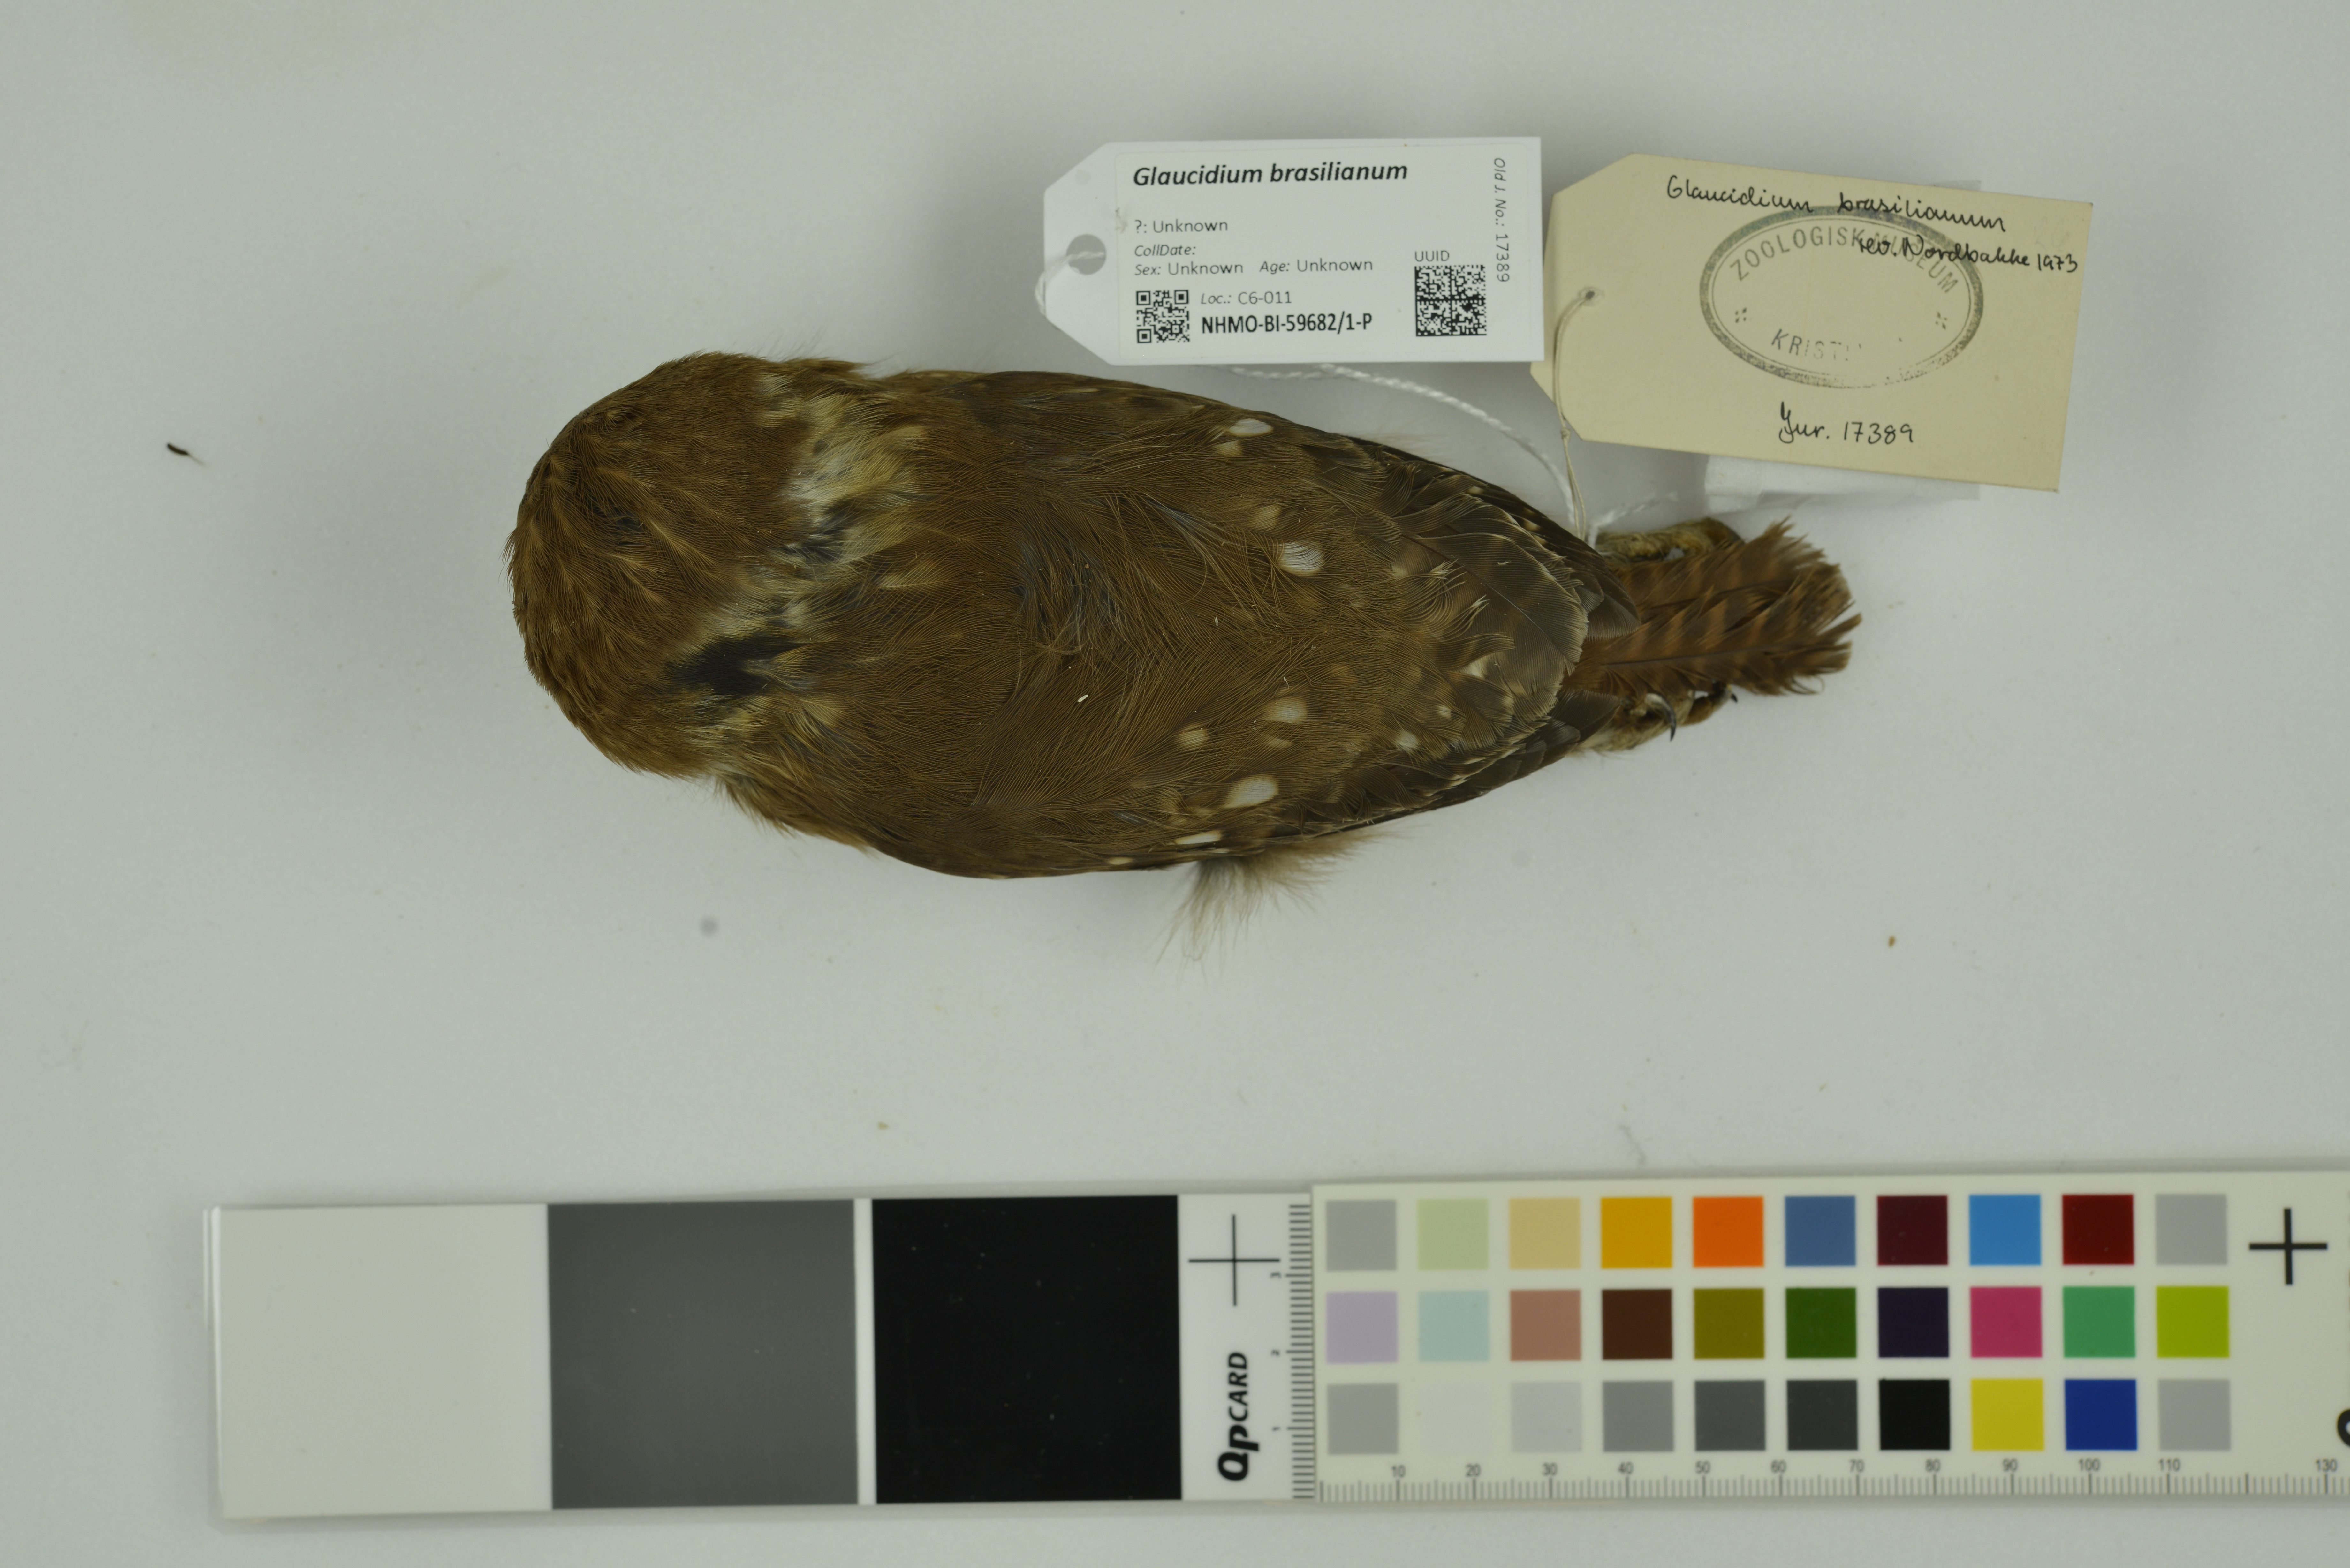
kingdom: Animalia
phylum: Chordata
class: Aves
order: Strigiformes
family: Strigidae
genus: Glaucidium
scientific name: Glaucidium brasilianum
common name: Ferruginous pygmy-owl
